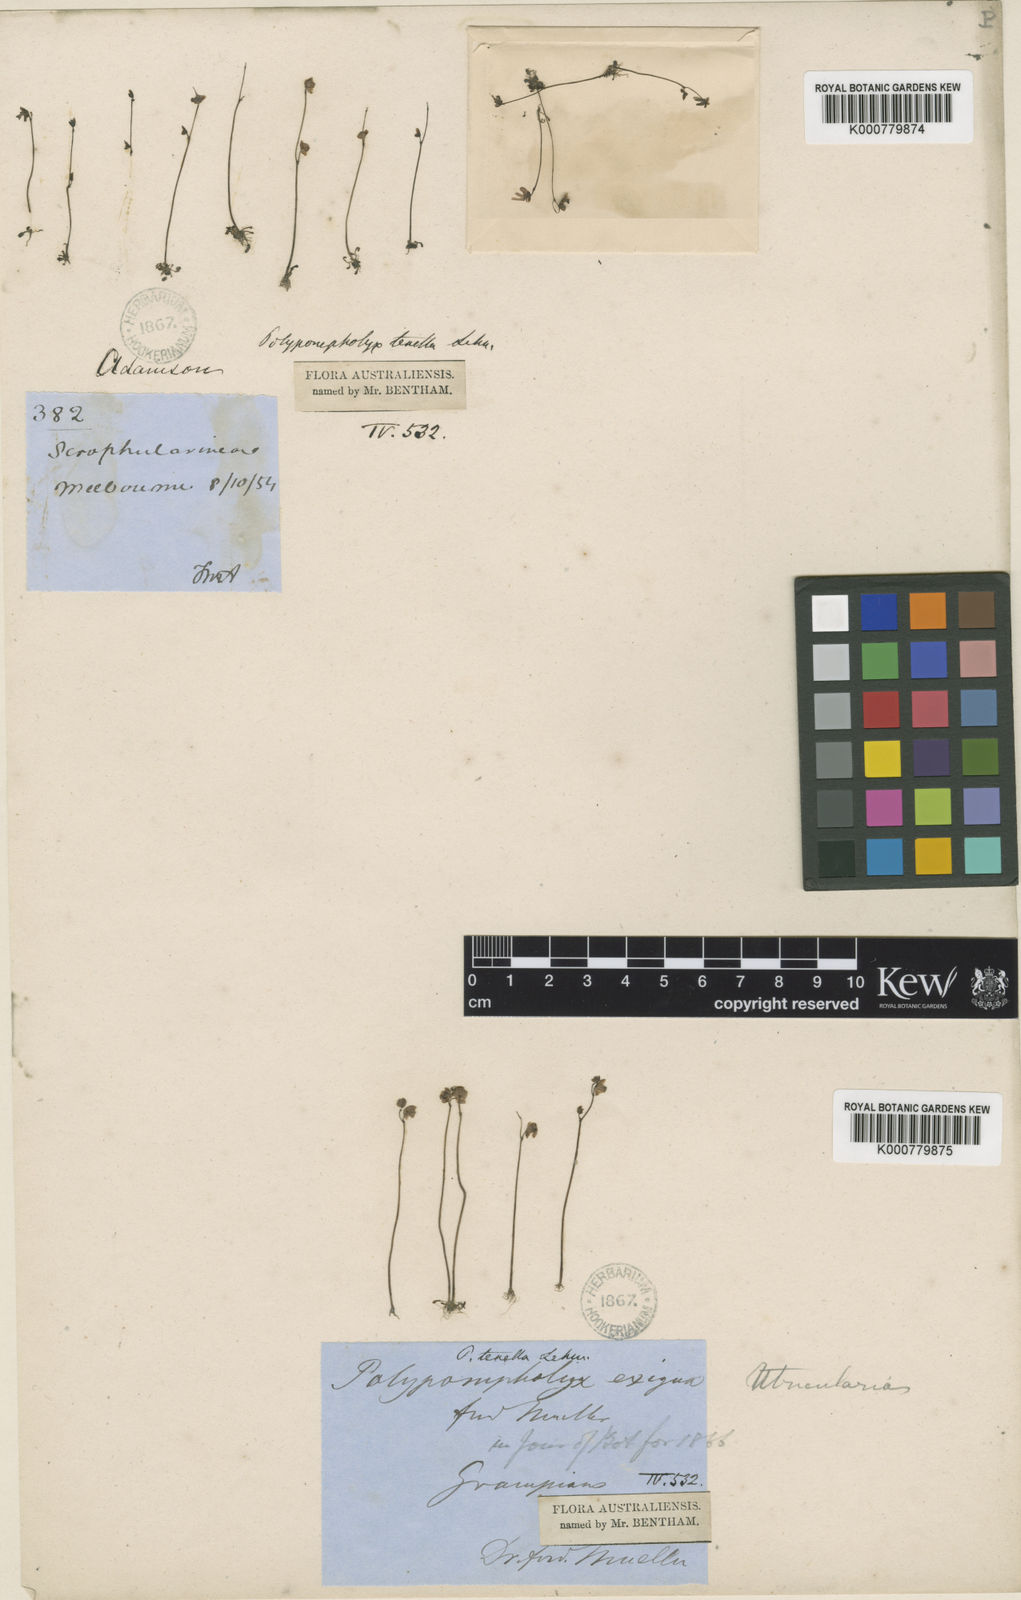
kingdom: Plantae
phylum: Tracheophyta
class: Magnoliopsida
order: Lamiales
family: Lentibulariaceae
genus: Utricularia
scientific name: Utricularia tenella
